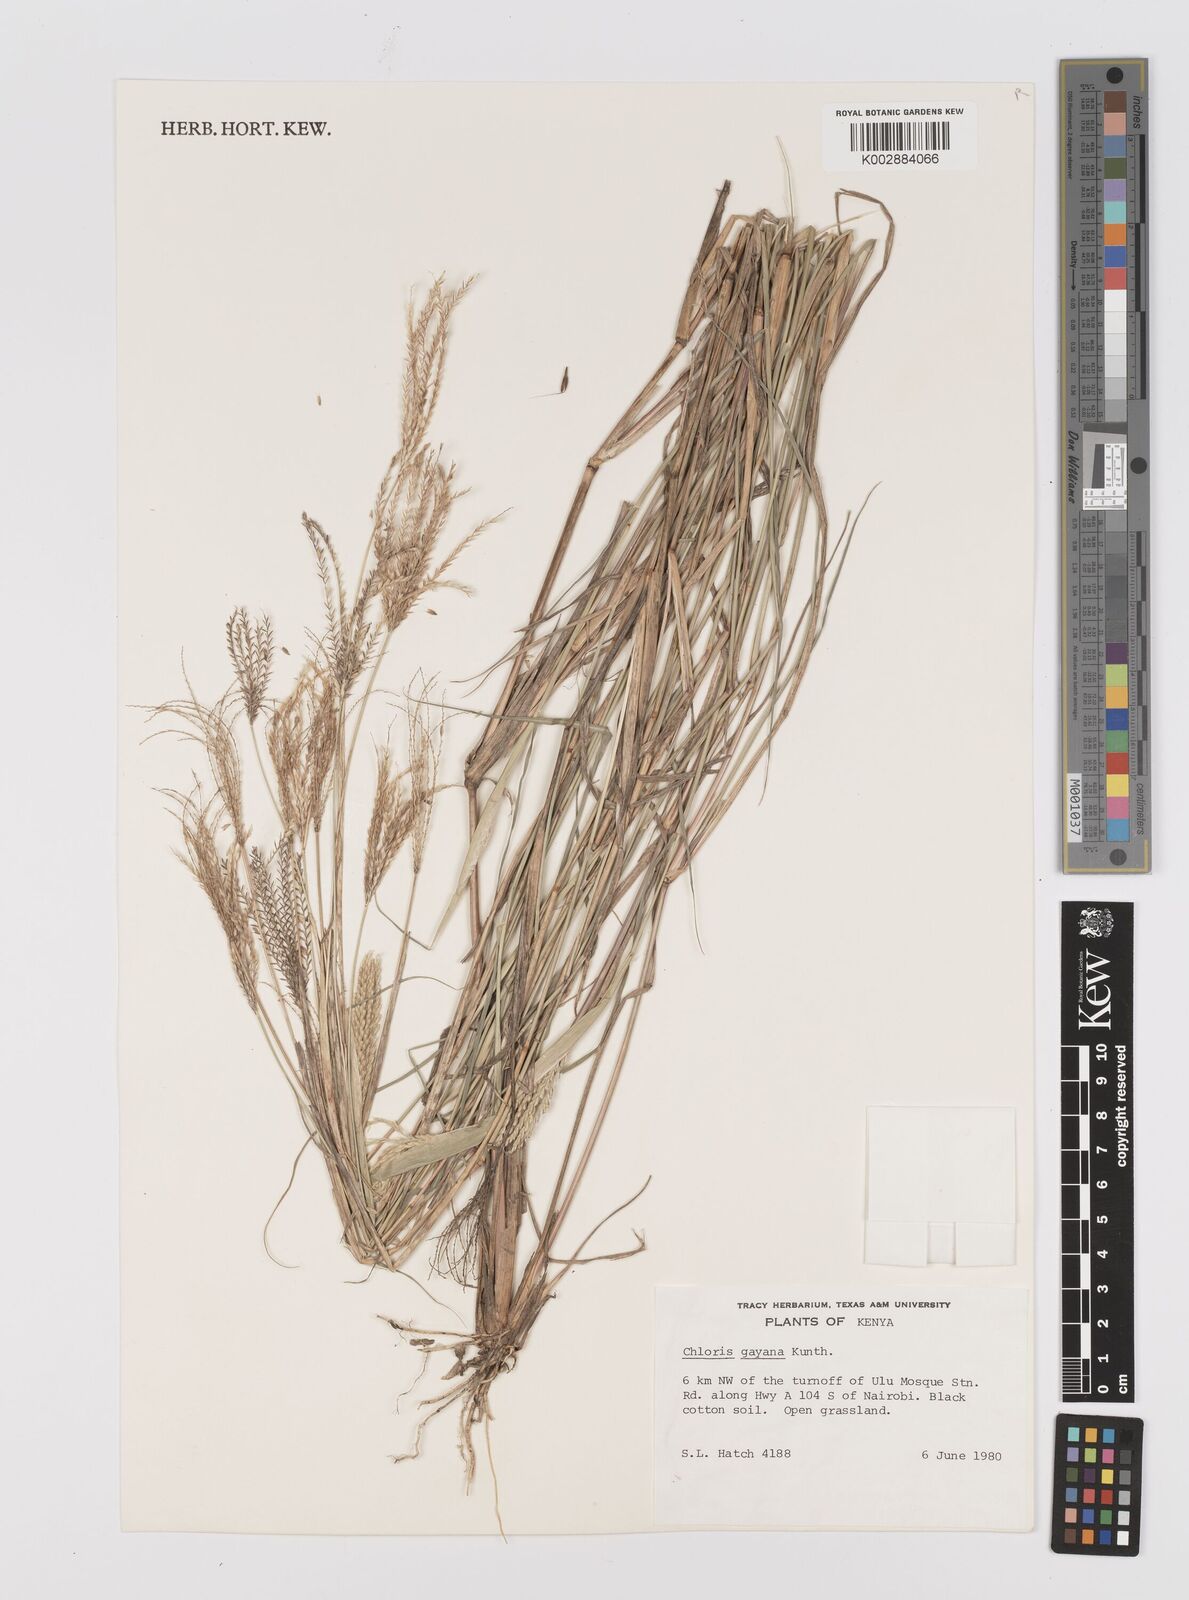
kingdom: Plantae
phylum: Tracheophyta
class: Liliopsida
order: Poales
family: Poaceae
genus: Chloris
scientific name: Chloris gayana
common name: Rhodes grass
